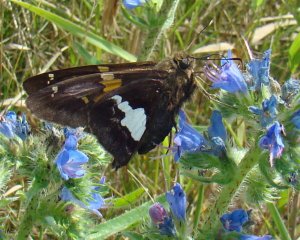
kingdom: Animalia
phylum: Arthropoda
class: Insecta
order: Lepidoptera
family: Hesperiidae
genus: Epargyreus
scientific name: Epargyreus clarus
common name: Silver-spotted Skipper
